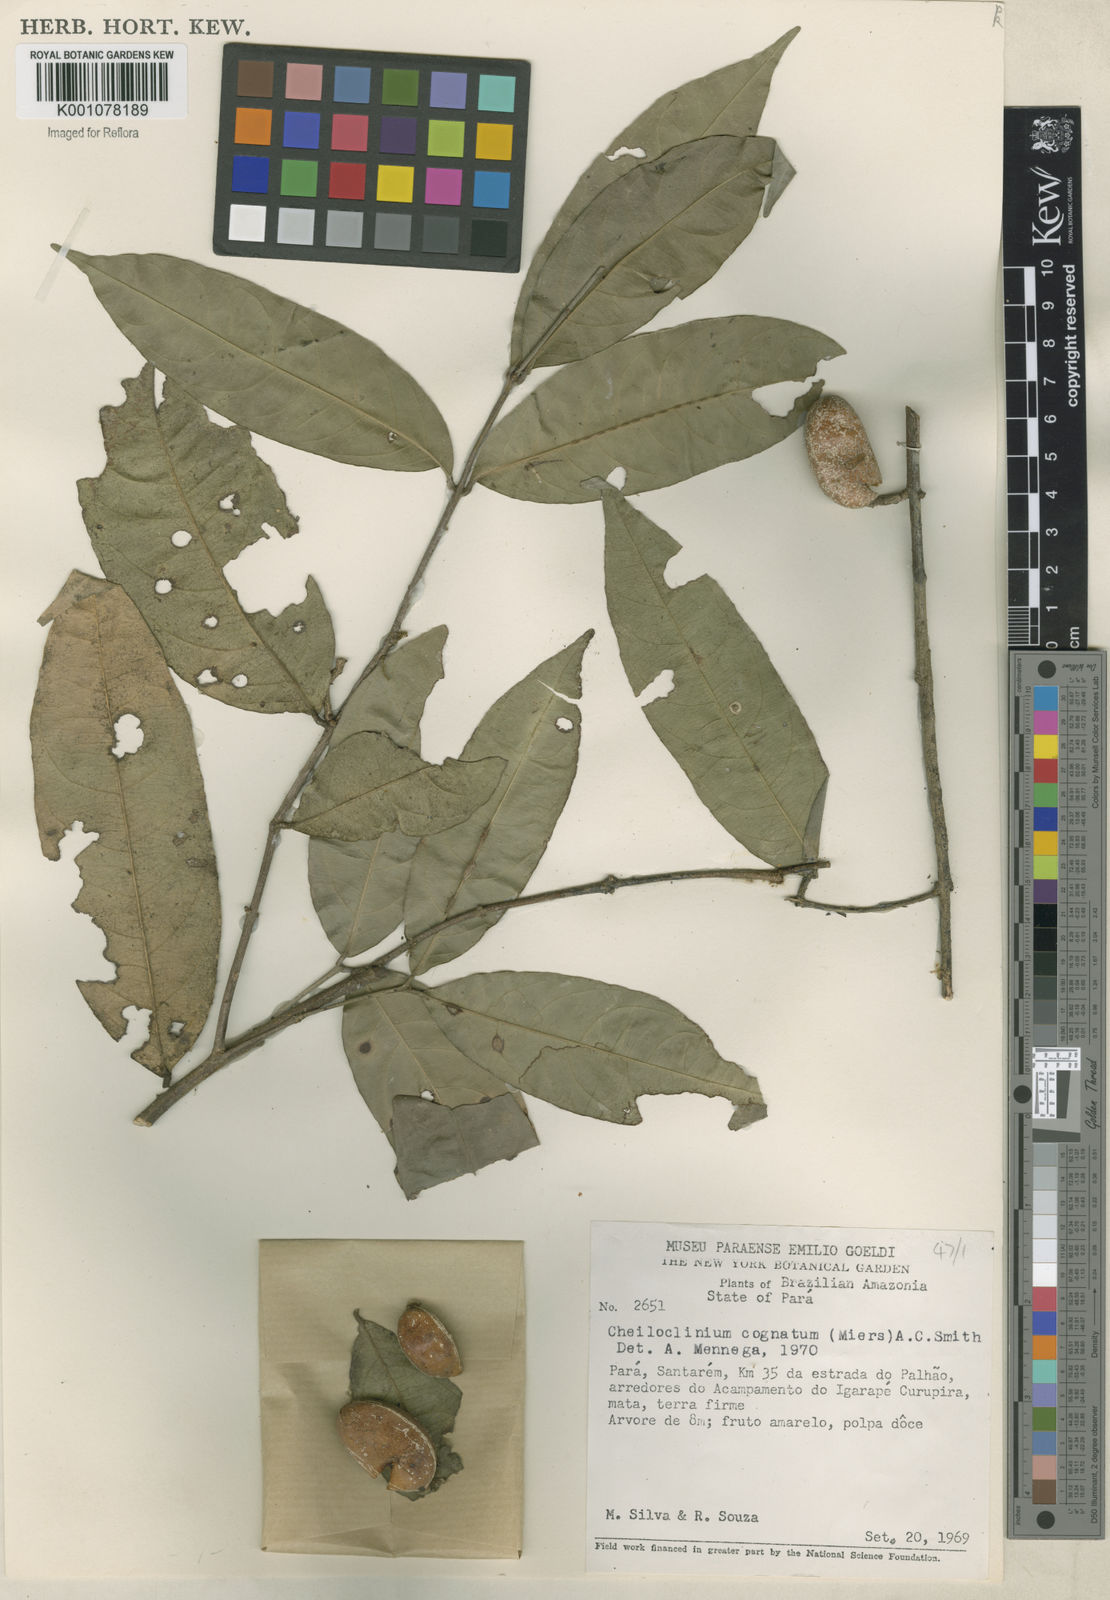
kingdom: Plantae
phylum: Tracheophyta
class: Magnoliopsida
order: Celastrales
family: Celastraceae
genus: Cheiloclinium
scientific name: Cheiloclinium cognatum
